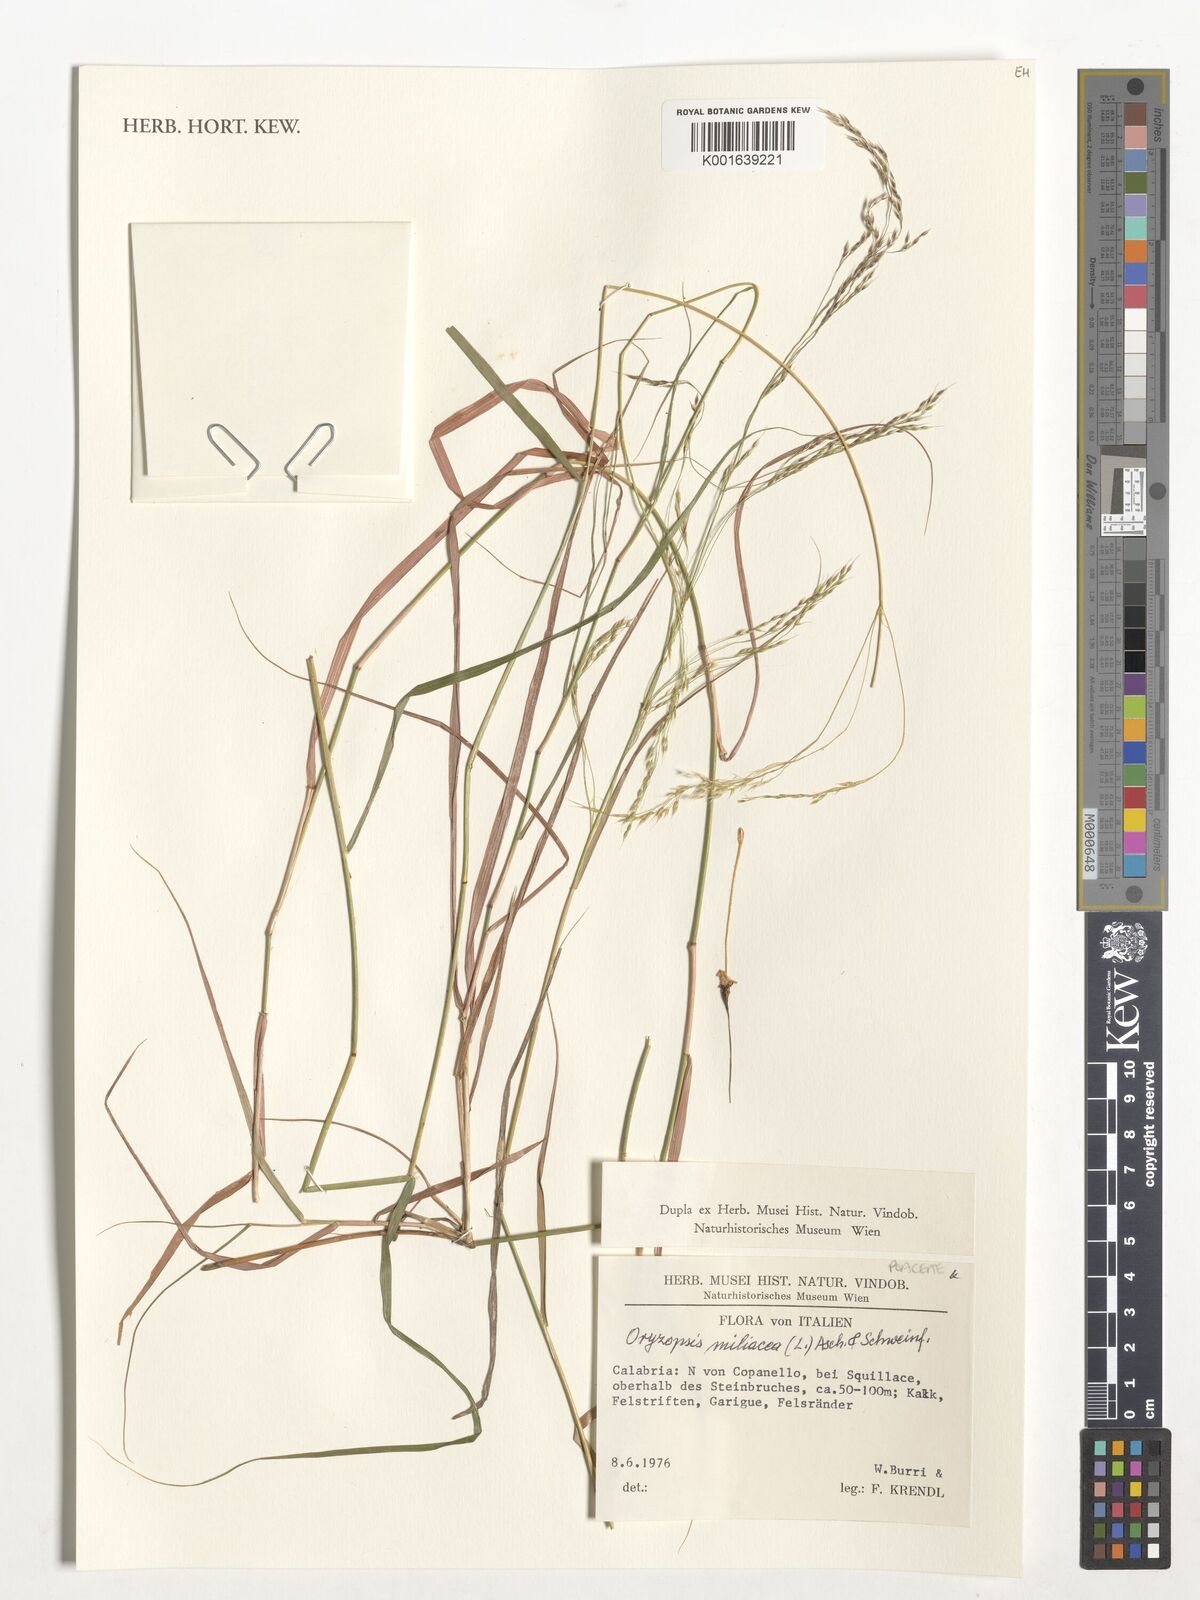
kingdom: Plantae
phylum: Tracheophyta
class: Liliopsida
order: Poales
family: Poaceae
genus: Oloptum
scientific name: Oloptum miliaceum
